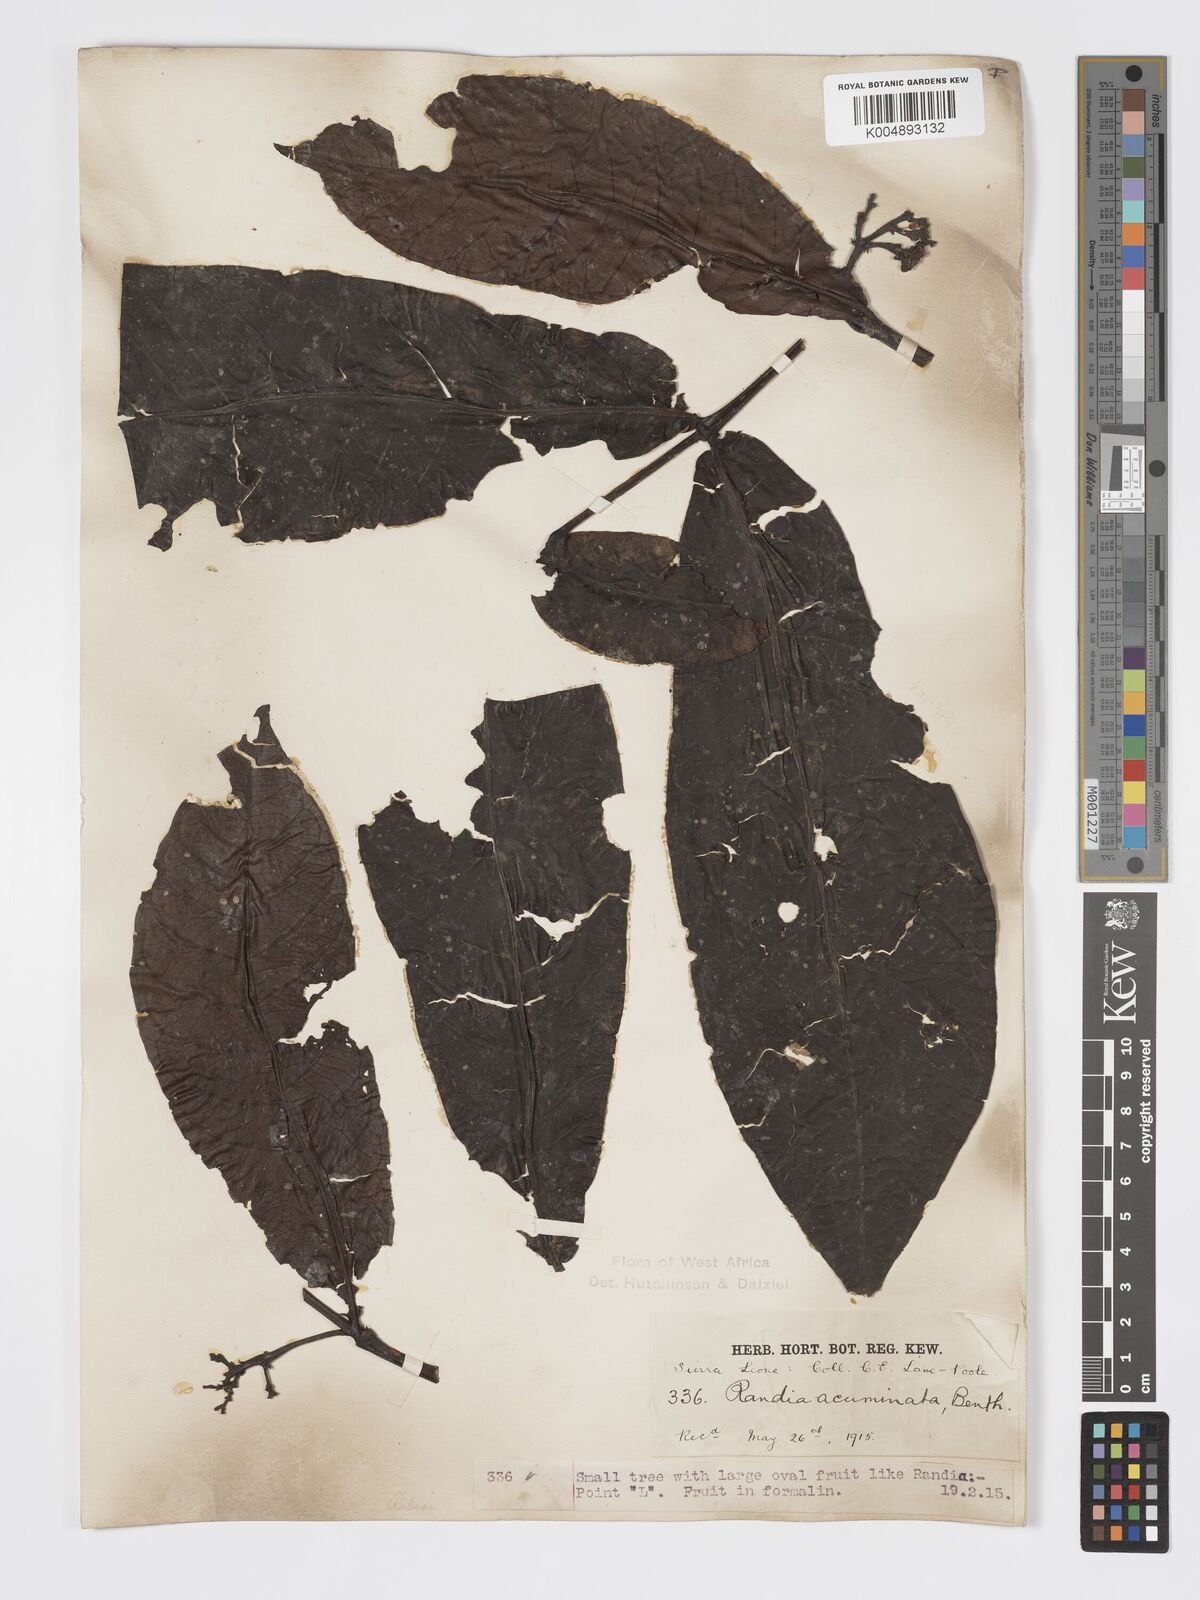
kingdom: Plantae
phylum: Tracheophyta
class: Magnoliopsida
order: Gentianales
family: Rubiaceae
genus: Massularia
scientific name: Massularia acuminata
